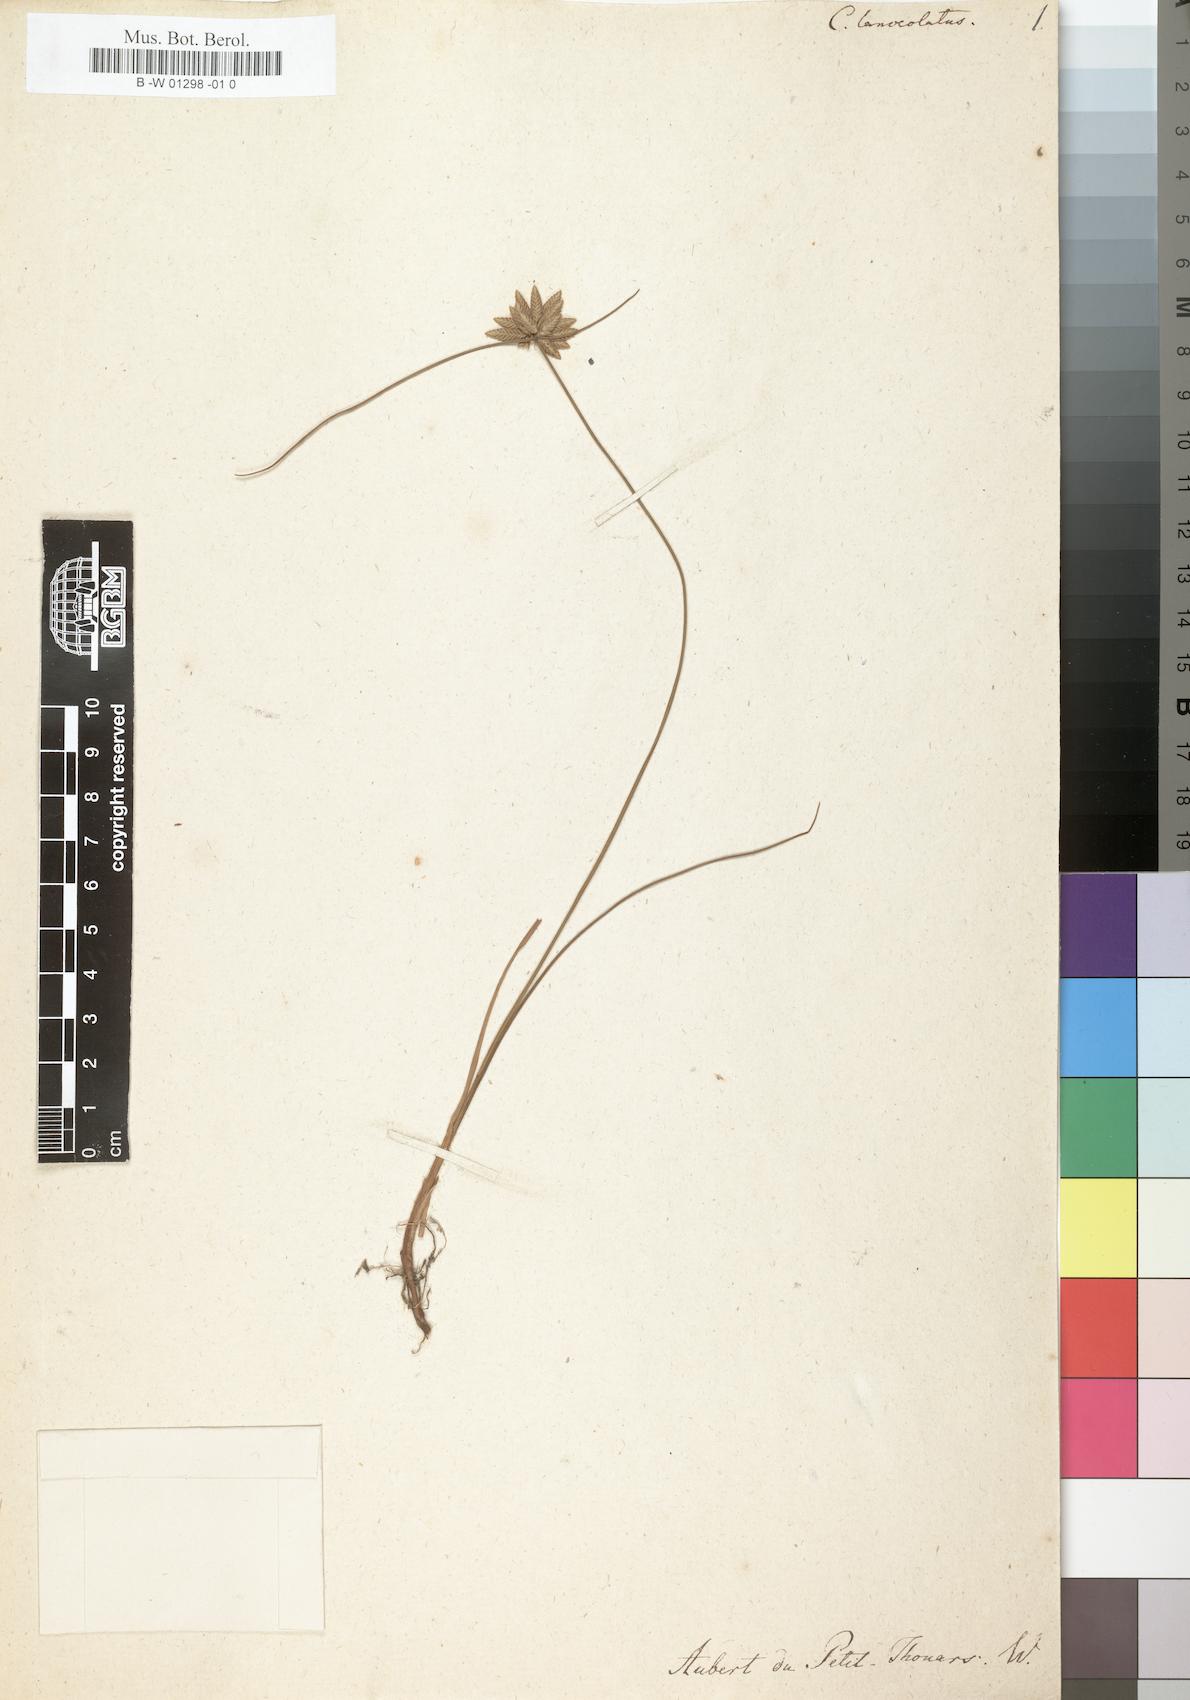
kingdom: Plantae
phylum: Tracheophyta
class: Liliopsida
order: Poales
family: Cyperaceae
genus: Cyperus
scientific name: Cyperus lanceolatus
